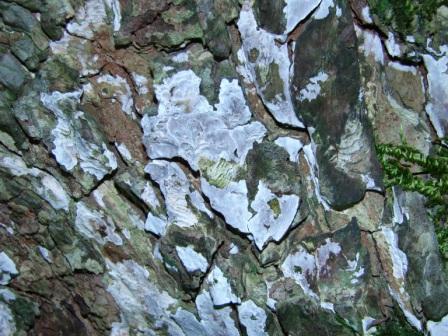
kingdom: Fungi
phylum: Basidiomycota
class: Agaricomycetes
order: Agaricales
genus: Dendrothele
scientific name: Dendrothele acerina
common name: navr-kalkplet
